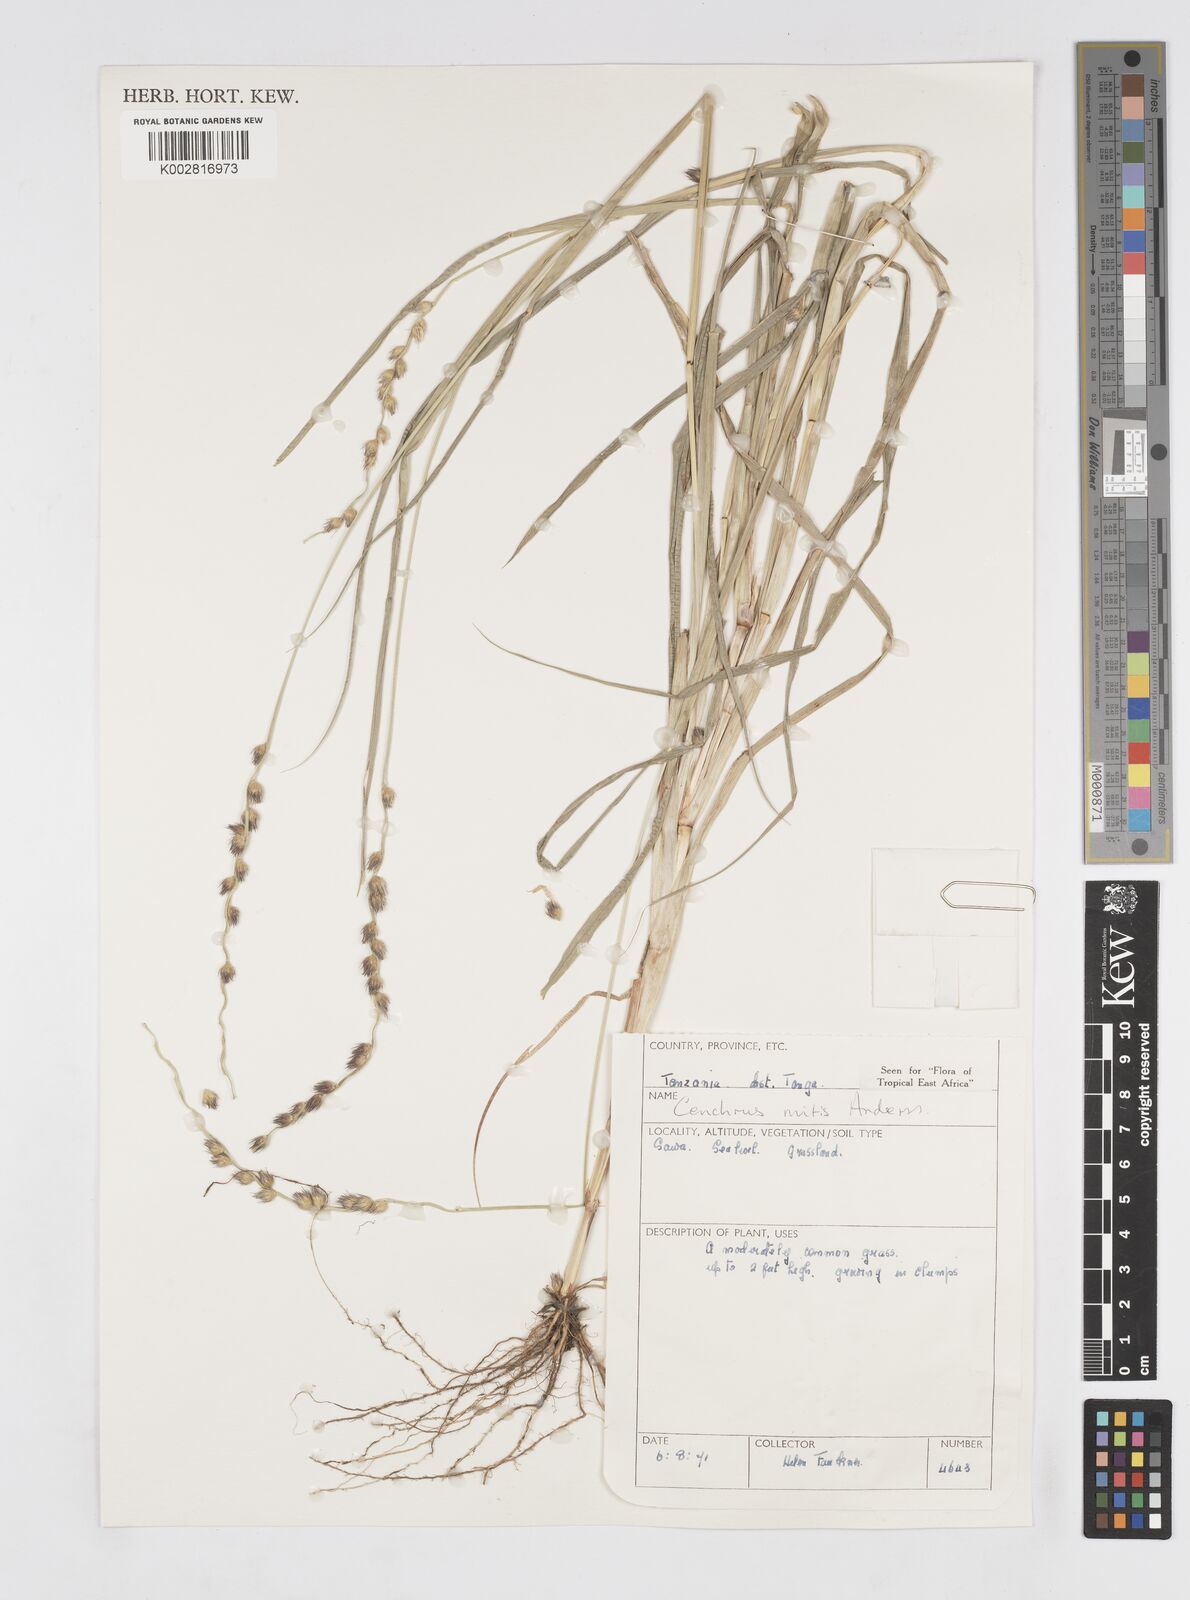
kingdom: Plantae
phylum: Tracheophyta
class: Liliopsida
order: Poales
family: Poaceae
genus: Cenchrus
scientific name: Cenchrus mitis
